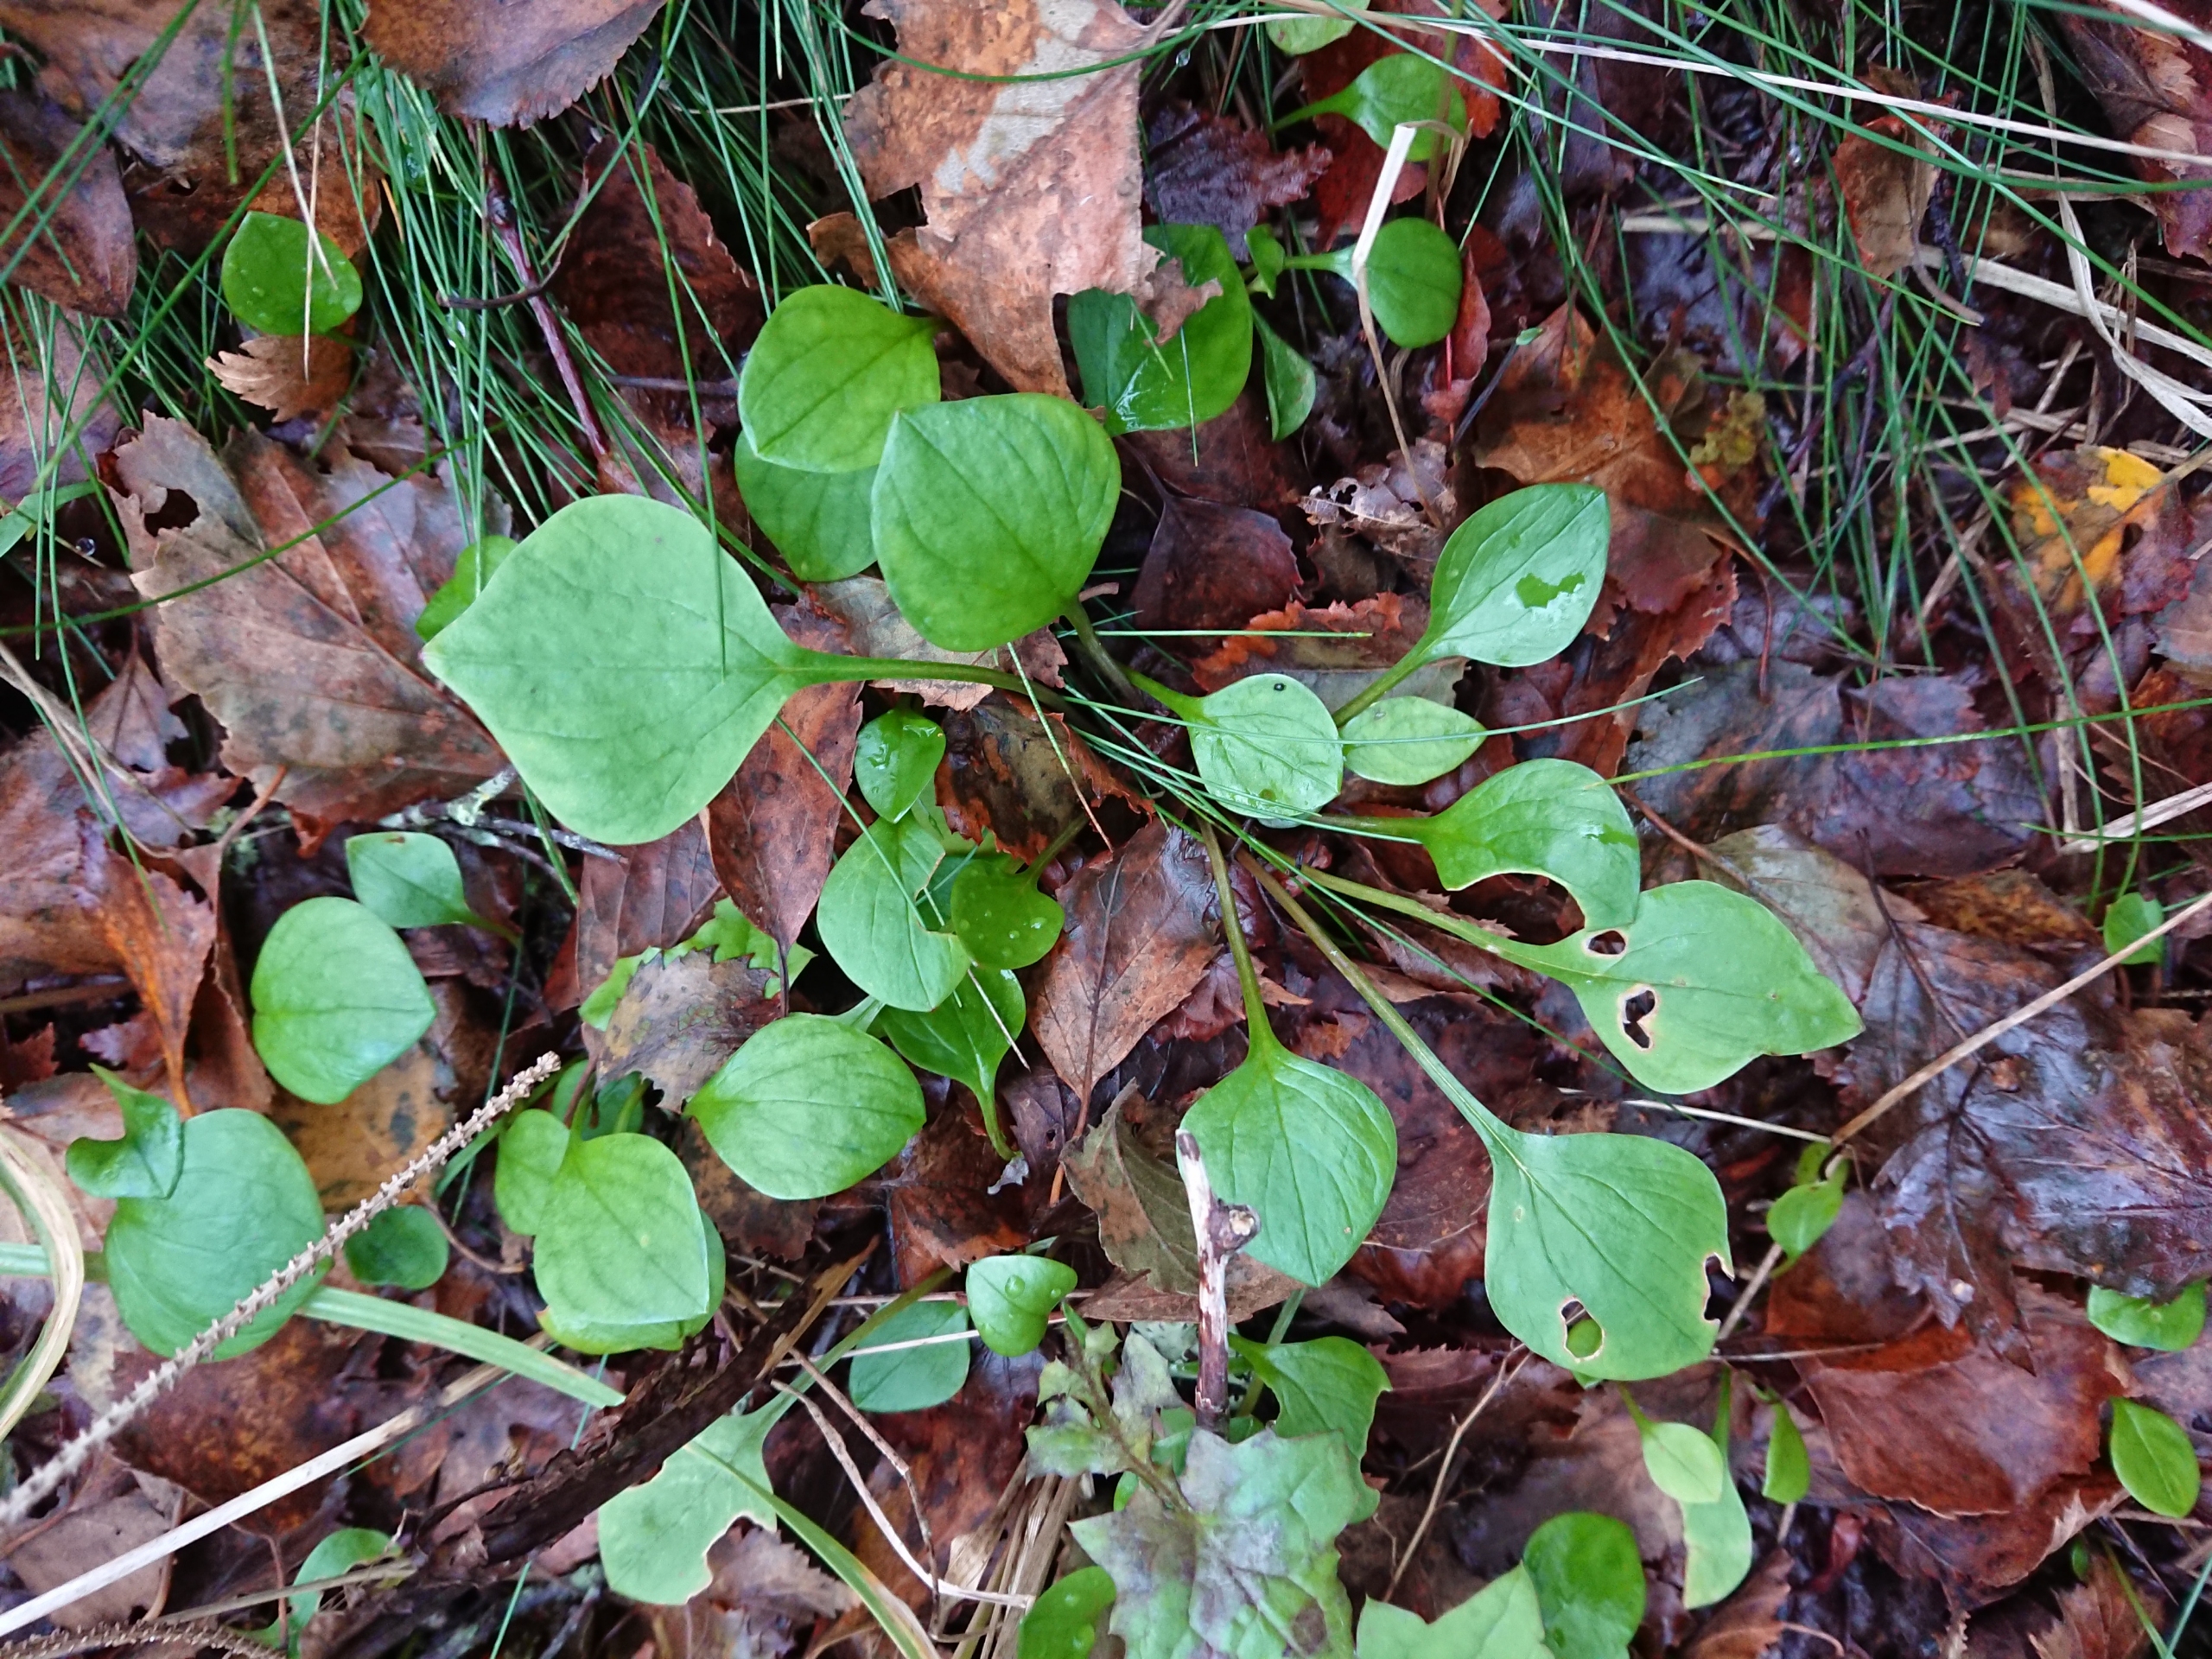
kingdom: Plantae
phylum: Tracheophyta
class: Magnoliopsida
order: Caryophyllales
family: Montiaceae
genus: Claytonia
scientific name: Claytonia sibirica
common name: Sibirisk vinterportulak
